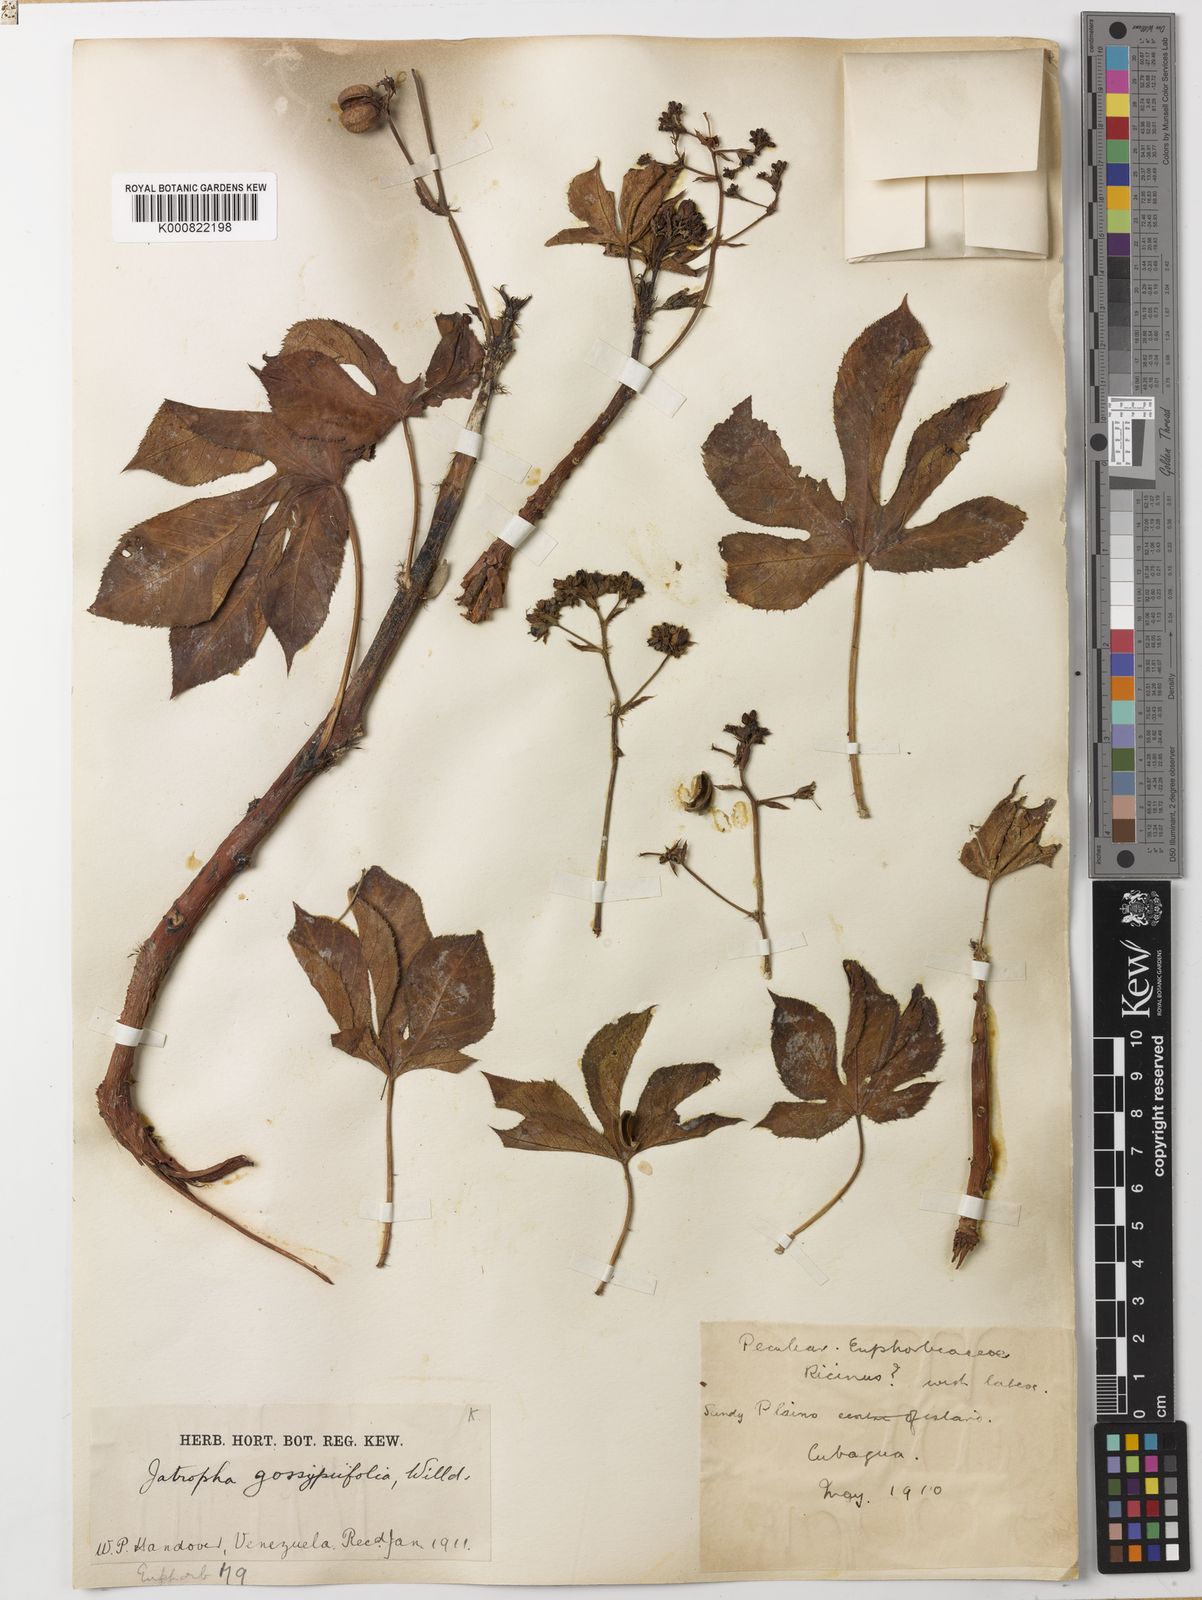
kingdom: Plantae
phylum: Tracheophyta
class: Magnoliopsida
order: Malpighiales
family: Euphorbiaceae
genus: Jatropha
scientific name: Jatropha gossypiifolia
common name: Bellyache bush
